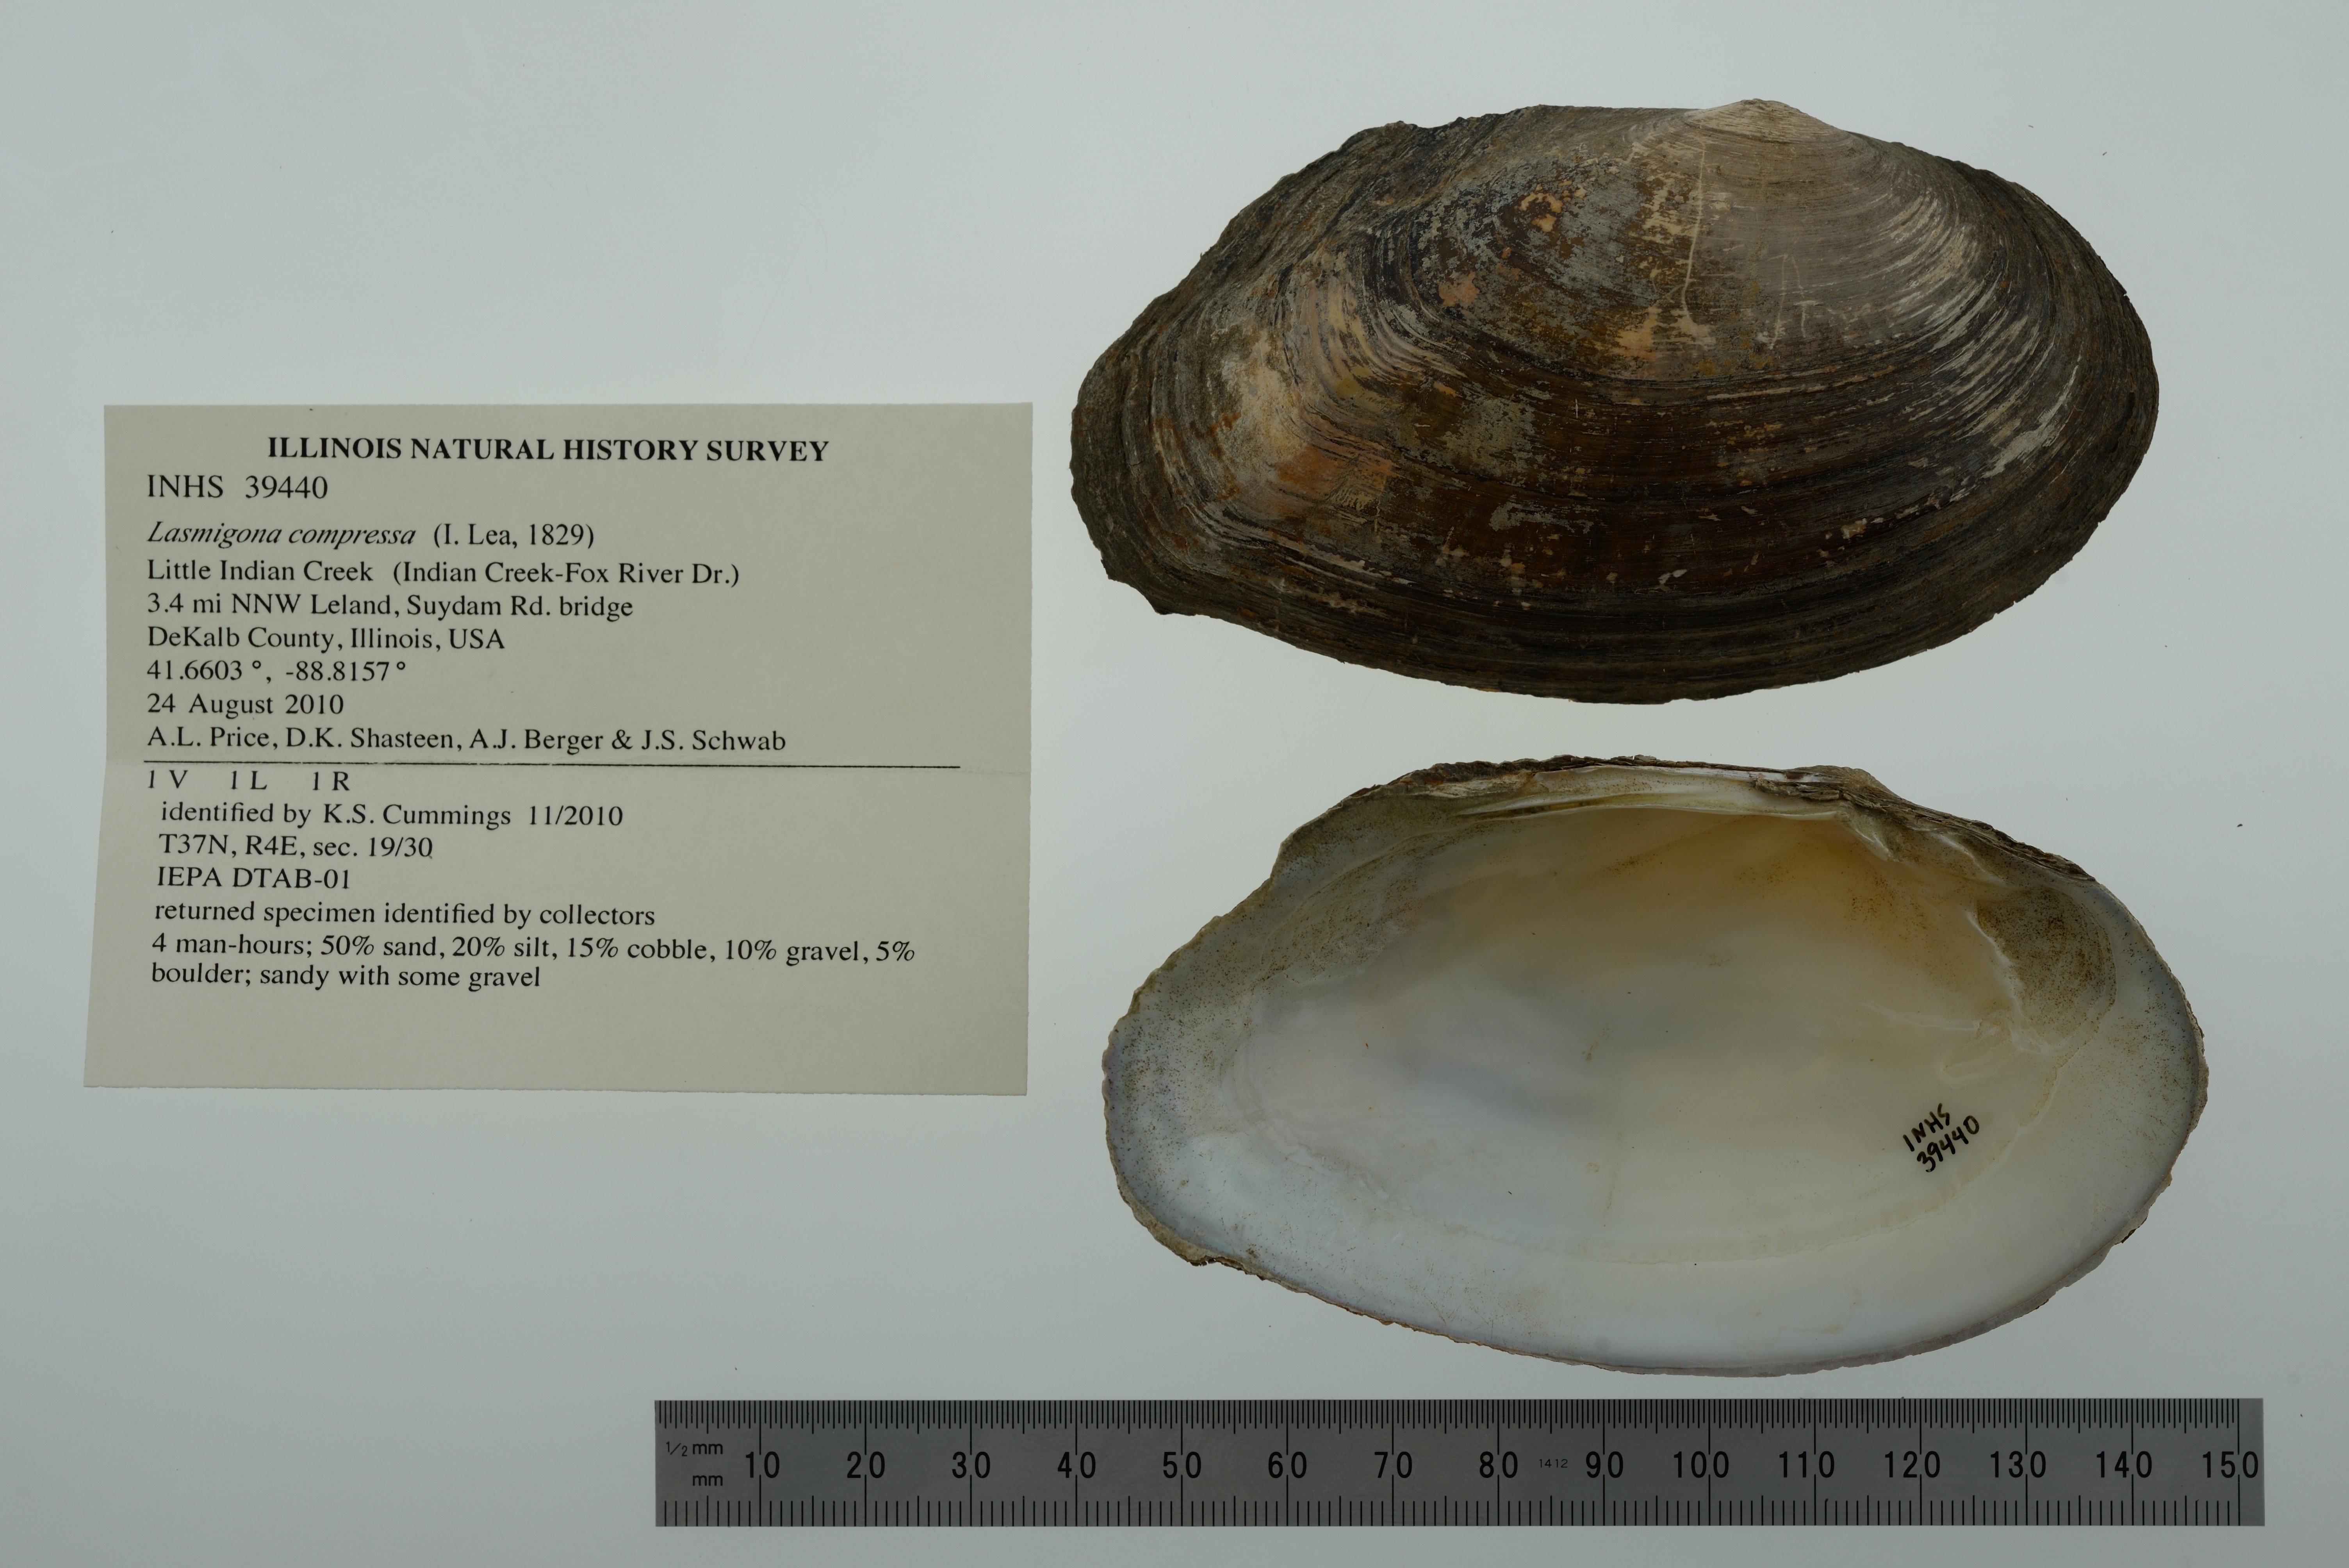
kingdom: Animalia
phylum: Mollusca
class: Bivalvia
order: Unionida
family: Unionidae
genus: Lasmigona
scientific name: Lasmigona compressa
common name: Creek heelsplitter
